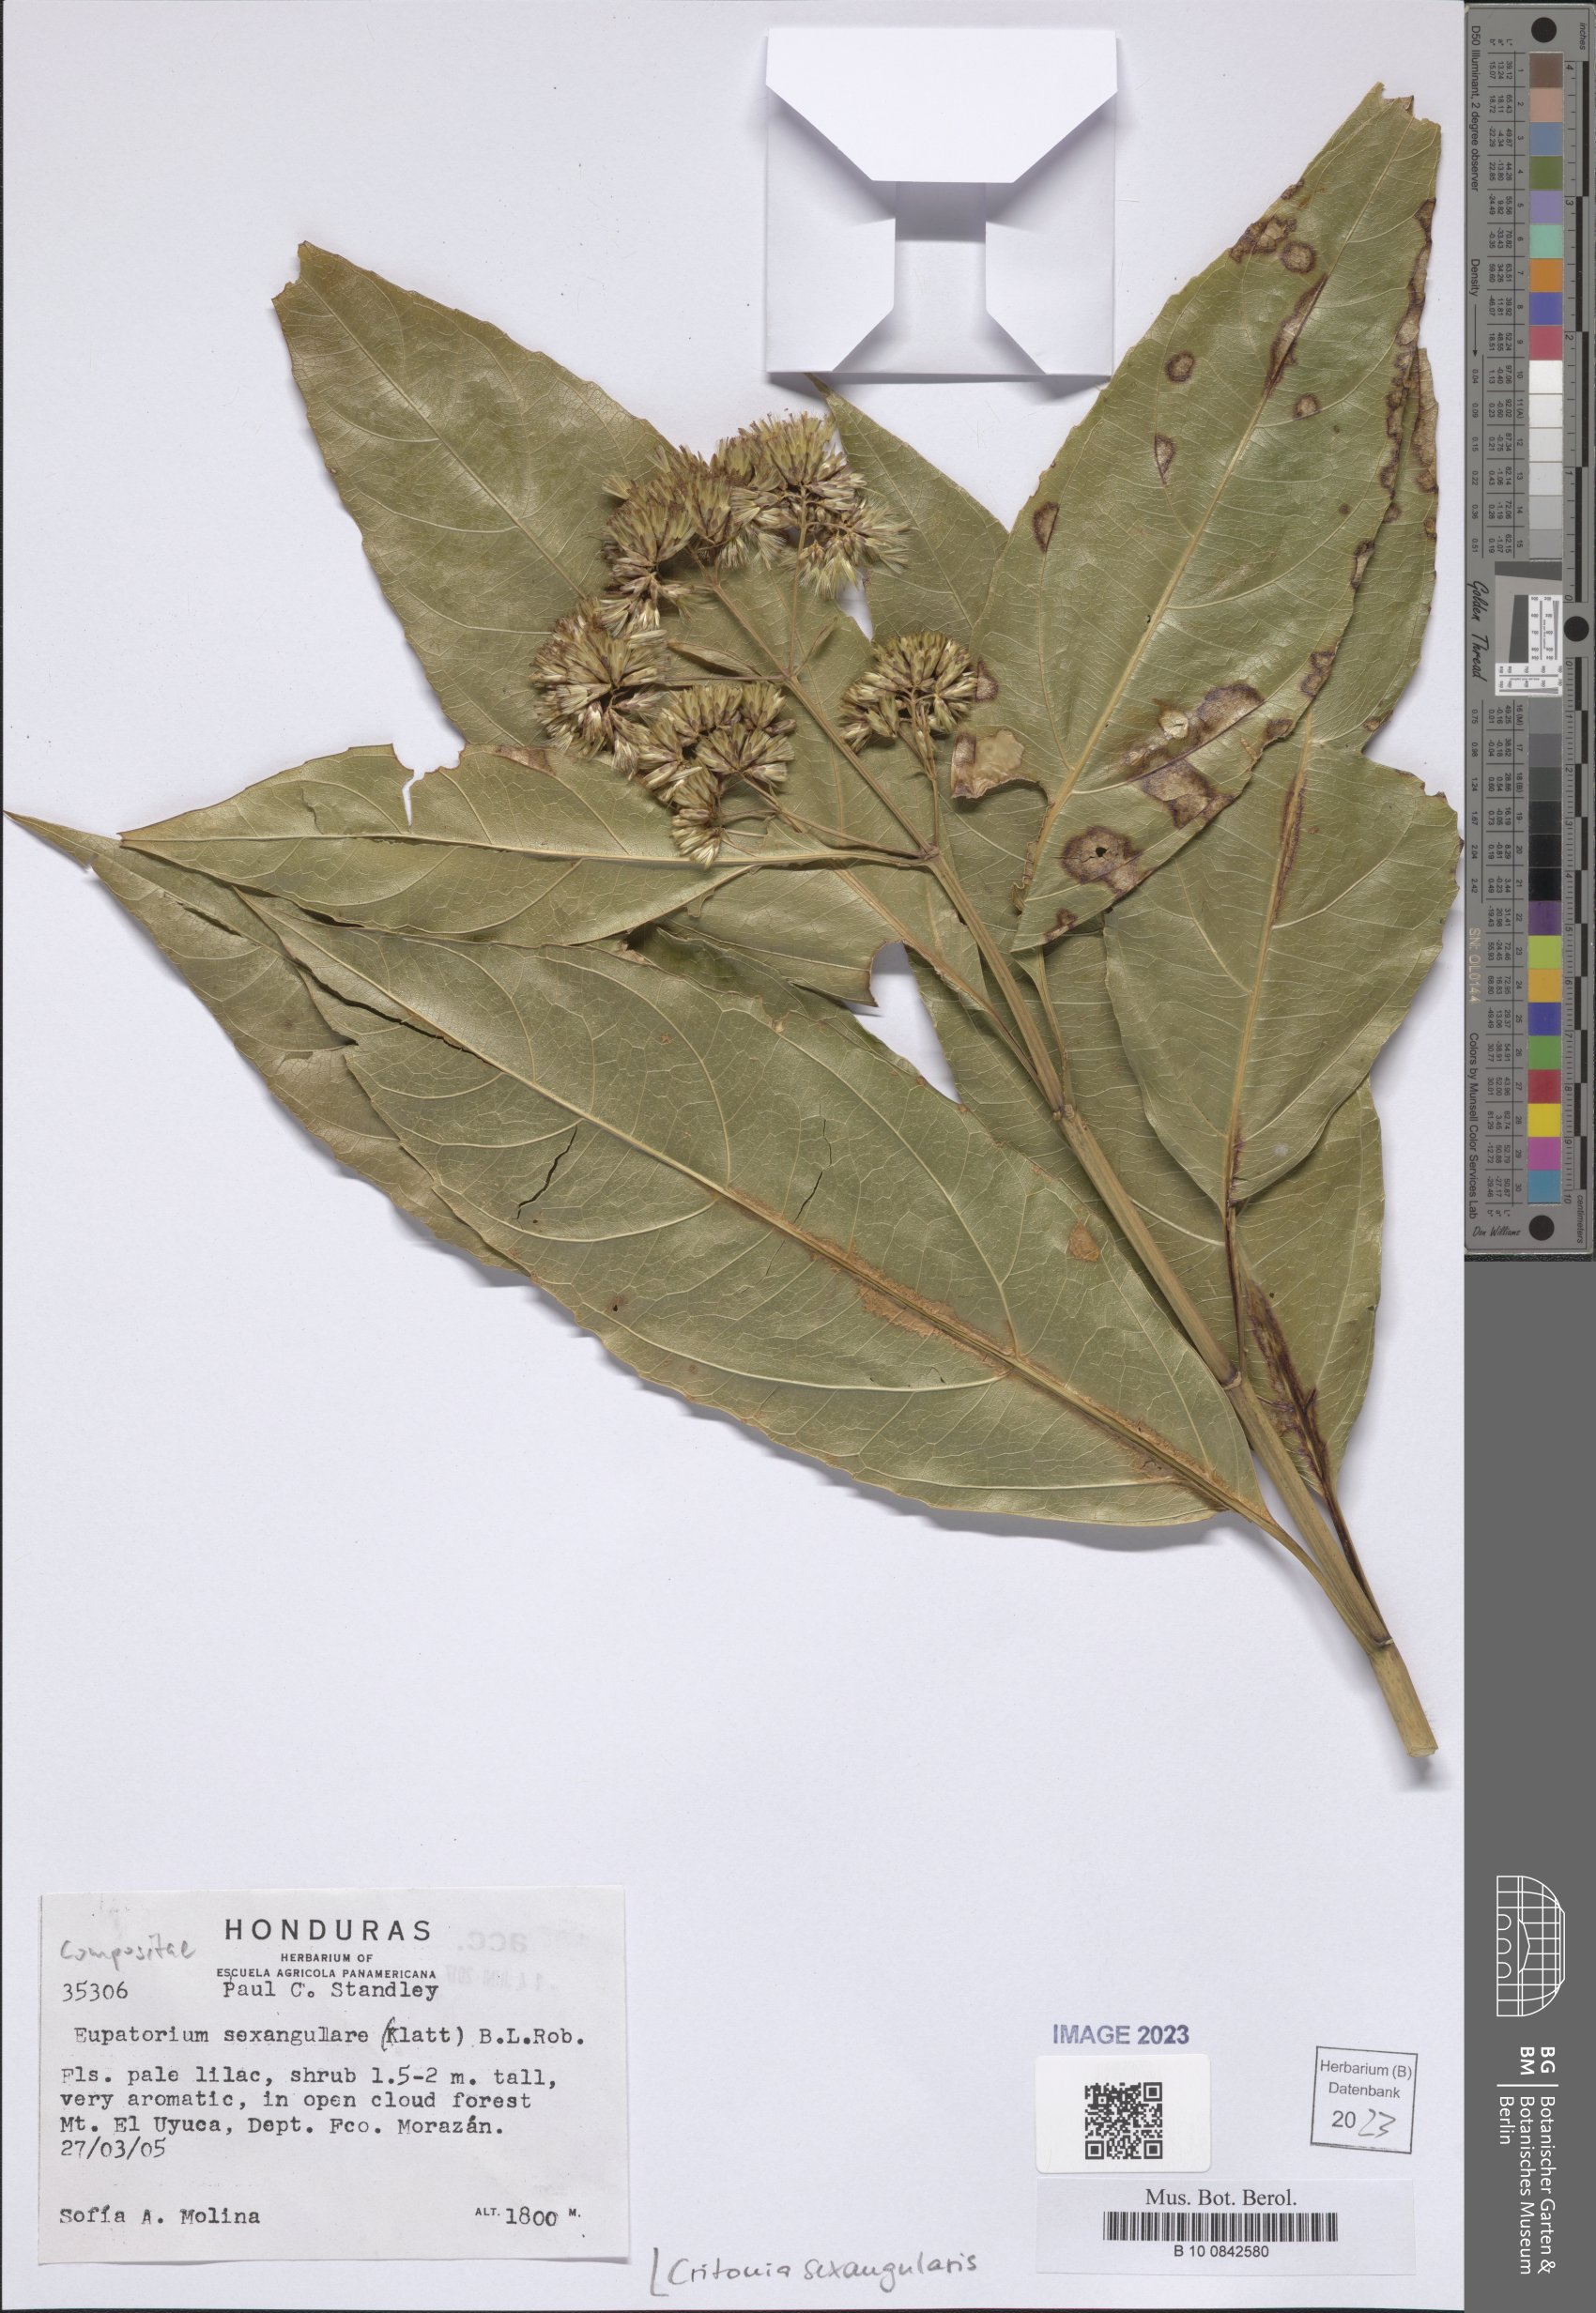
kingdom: Plantae
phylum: Tracheophyta
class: Magnoliopsida
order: Asterales
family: Asteraceae
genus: Critonia
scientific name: Critonia sexangularis
